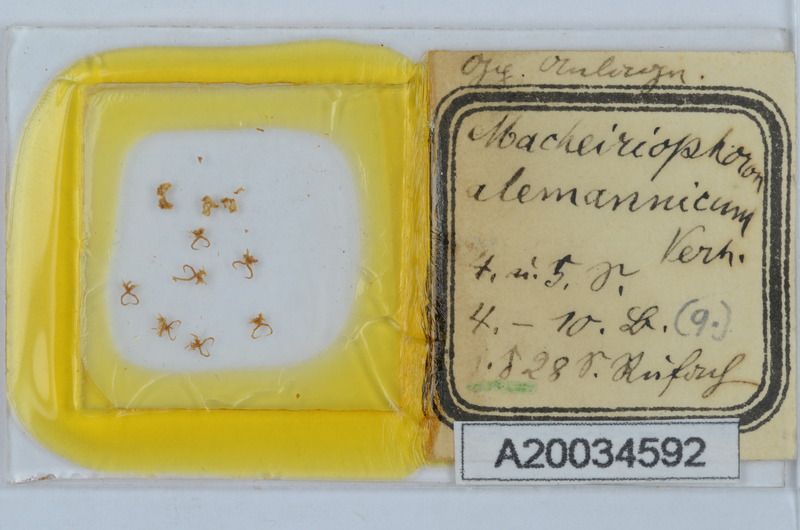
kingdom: Animalia
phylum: Arthropoda
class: Diplopoda
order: Chordeumatida
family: Craspedosomatidae
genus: Macheiriophoron
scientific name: Macheiriophoron alemannicum
